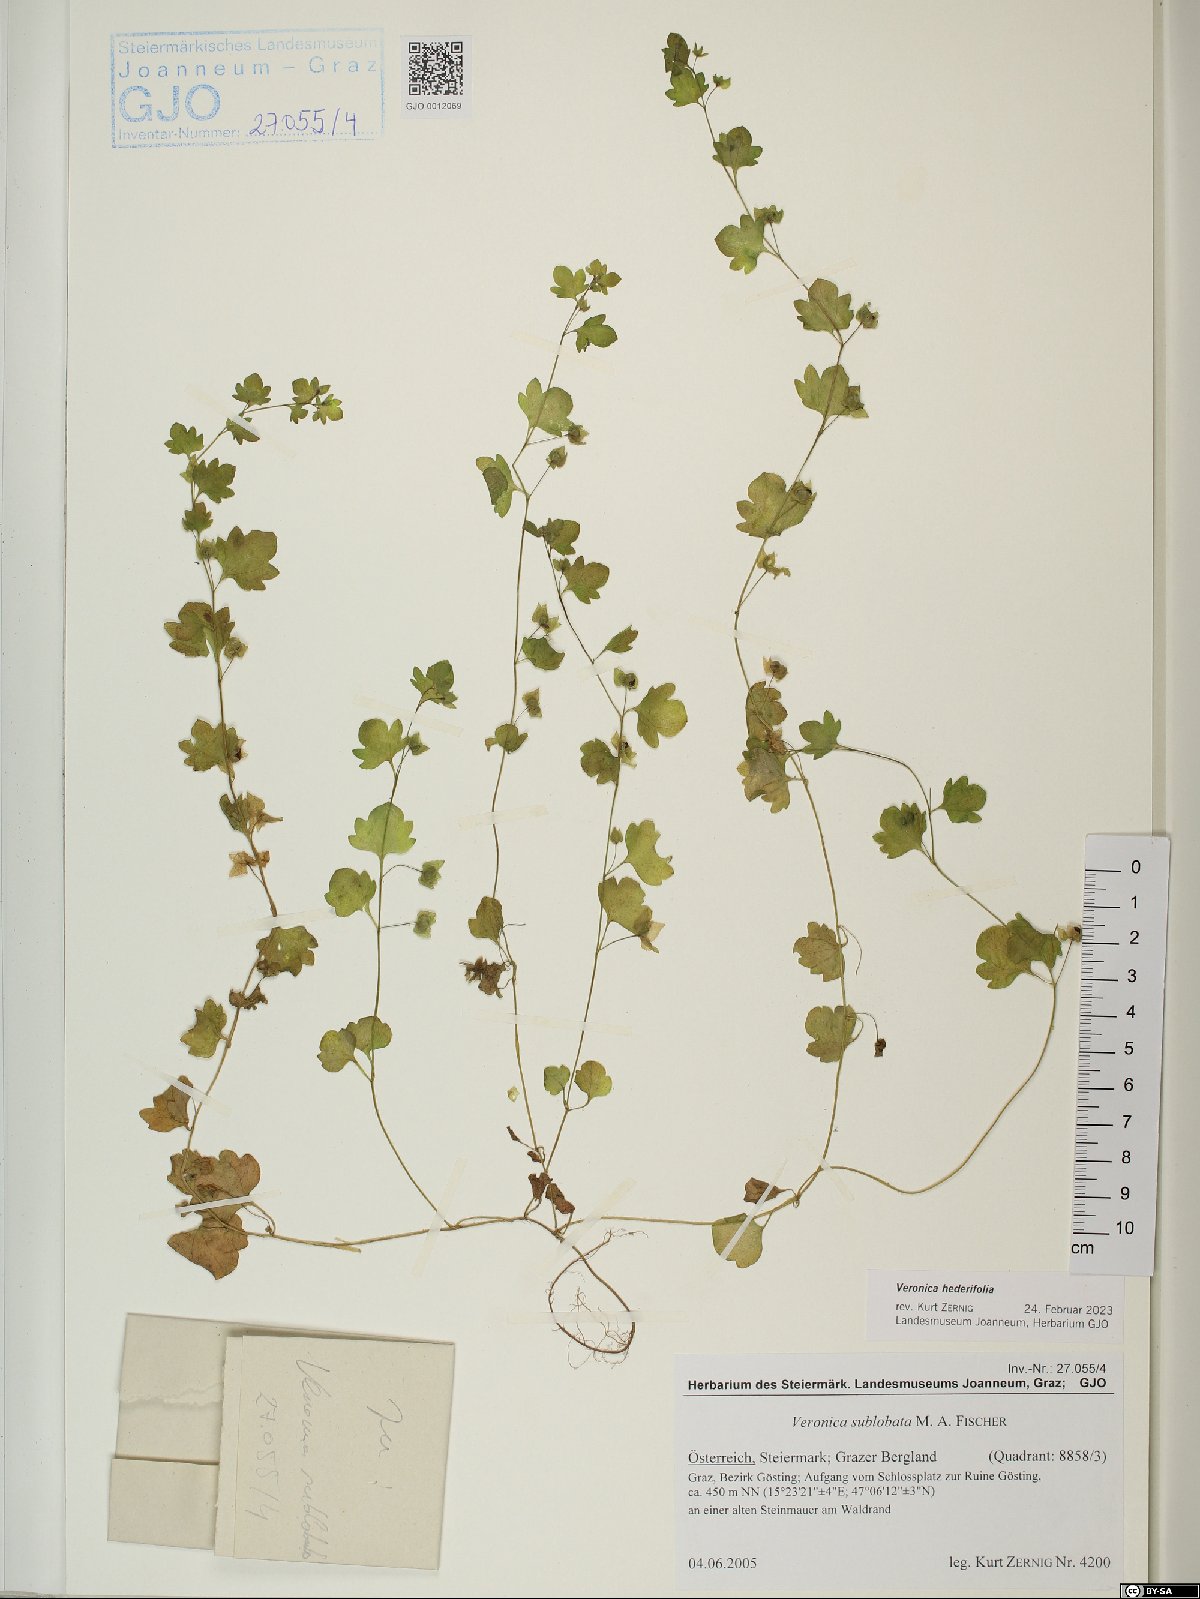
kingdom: Plantae
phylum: Tracheophyta
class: Magnoliopsida
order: Lamiales
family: Plantaginaceae
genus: Veronica
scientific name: Veronica hederifolia
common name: Ivy-leaved speedwell
